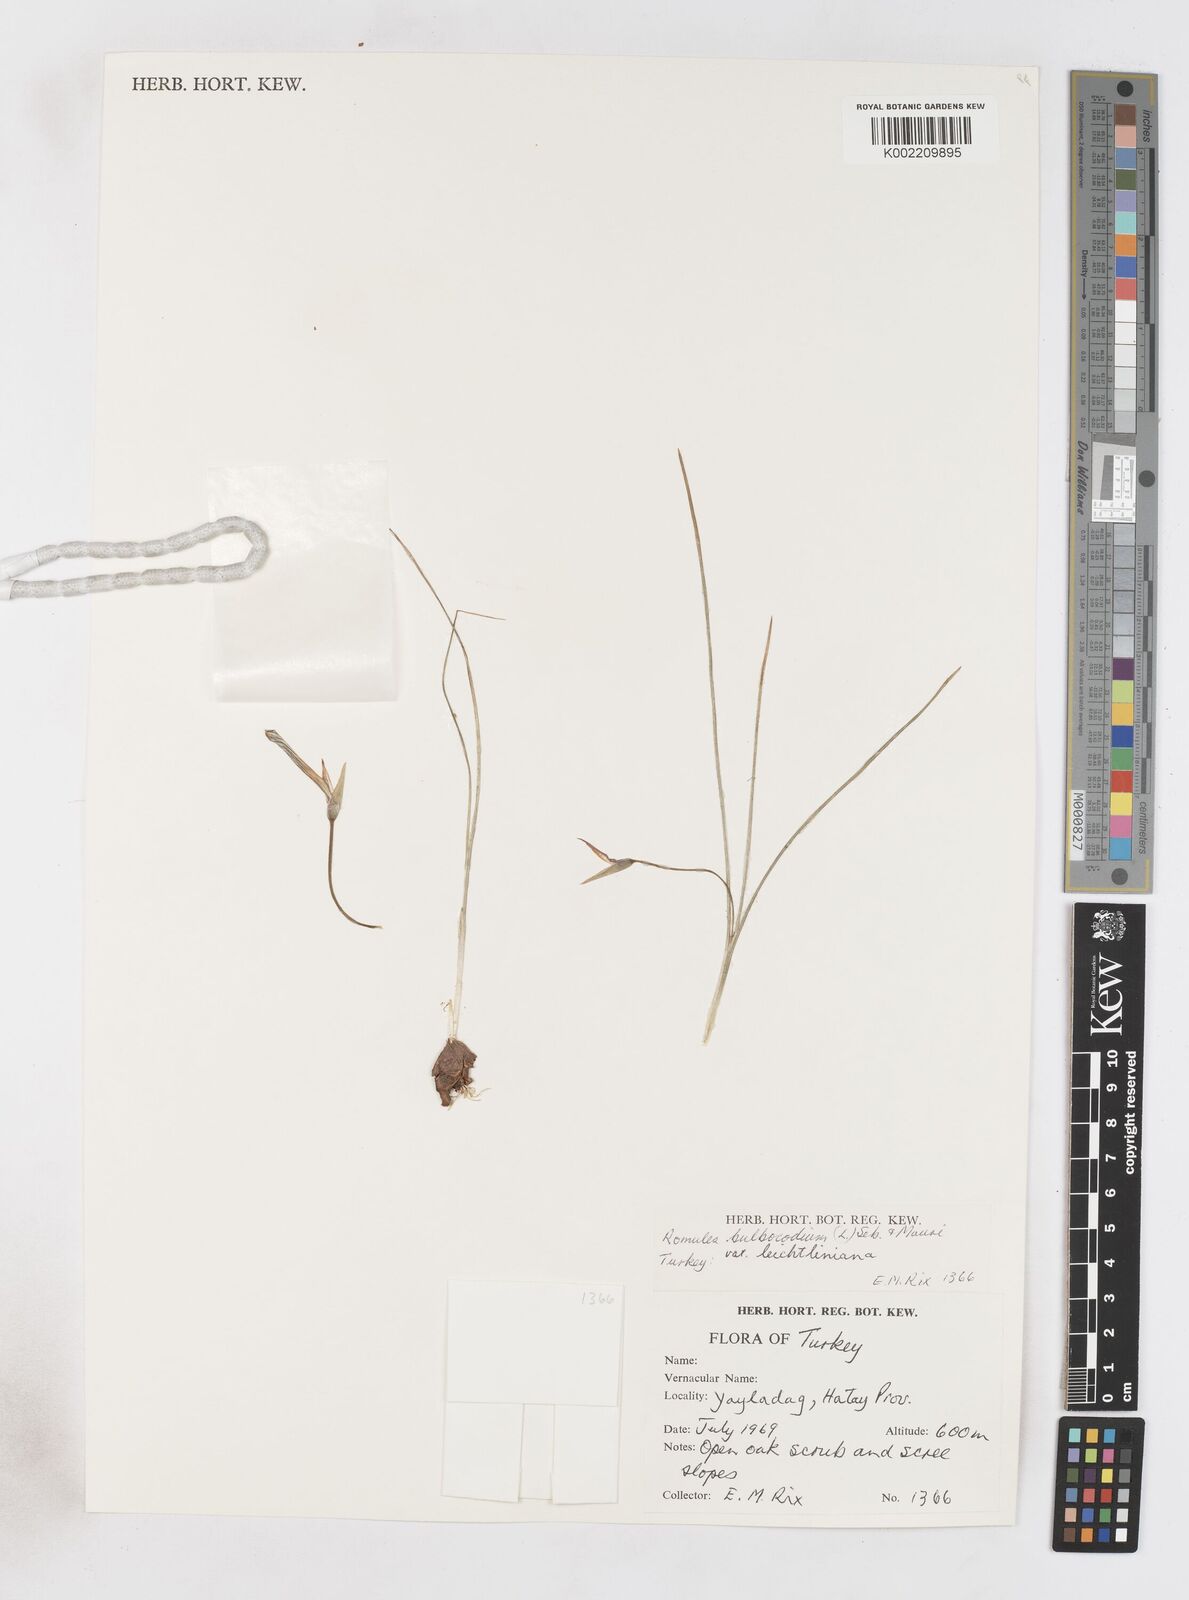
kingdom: Plantae
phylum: Tracheophyta
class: Liliopsida
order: Asparagales
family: Iridaceae
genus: Romulea
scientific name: Romulea bulbocodium
